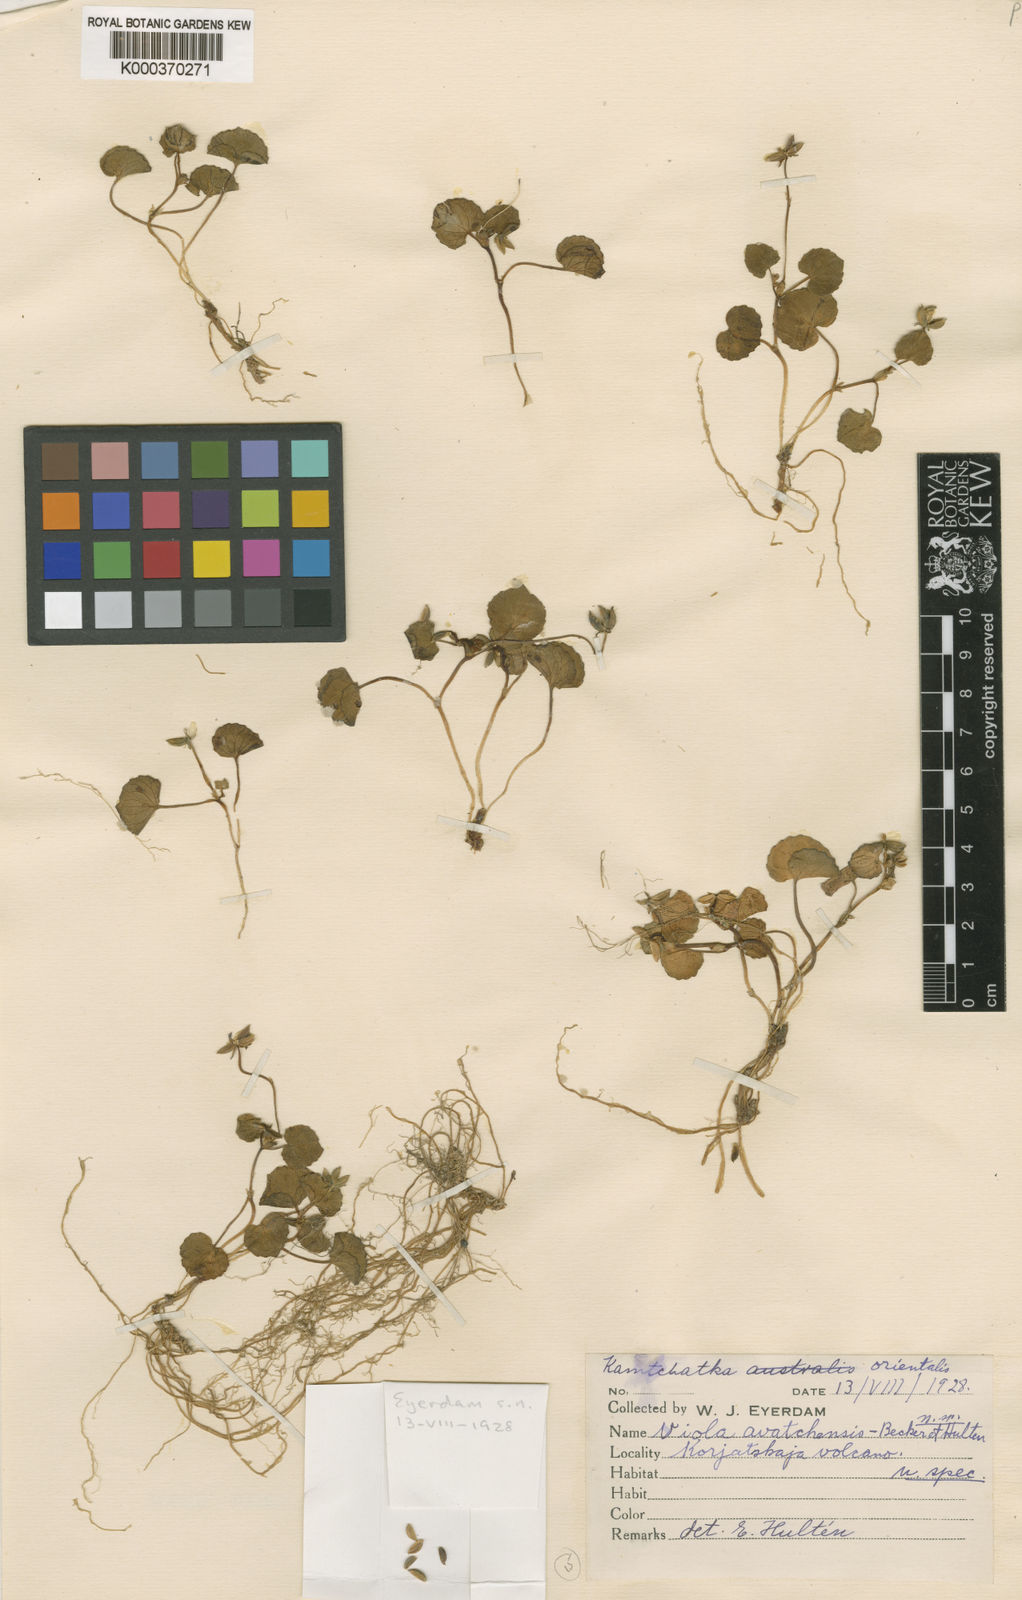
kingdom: Plantae
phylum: Tracheophyta
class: Magnoliopsida
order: Malpighiales
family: Violaceae
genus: Viola
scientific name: Viola crassa
